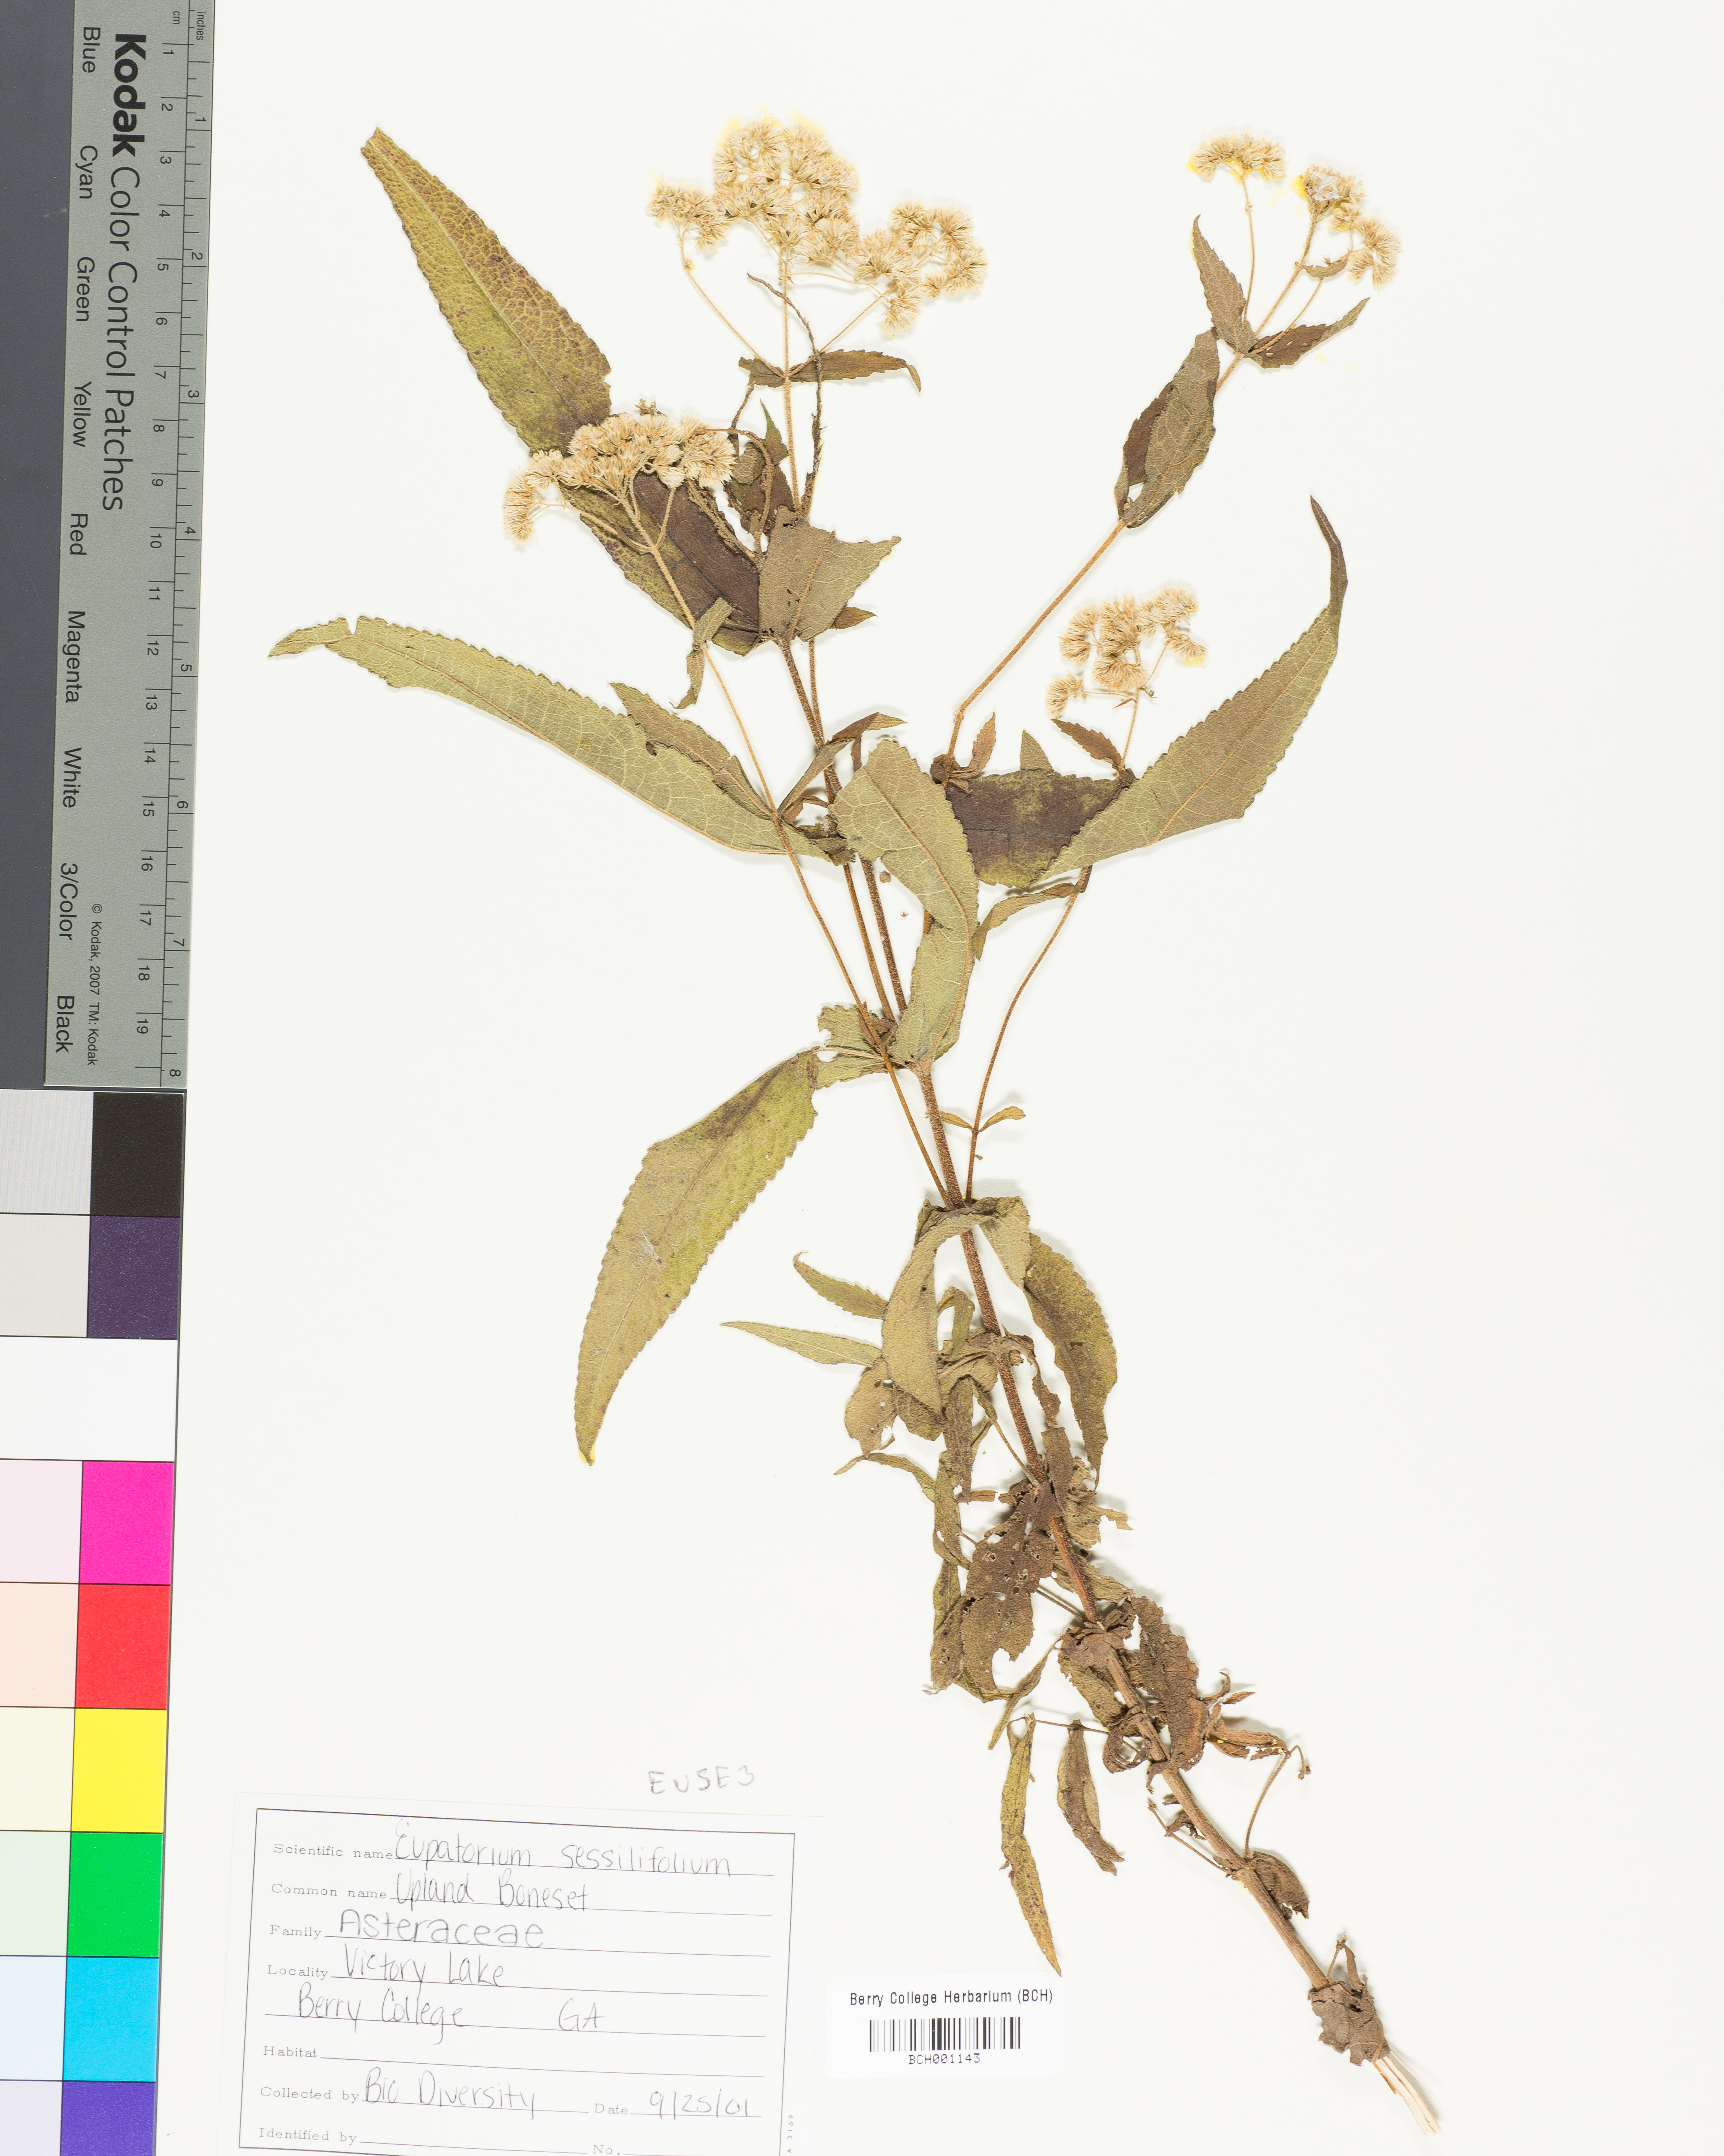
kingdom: Plantae
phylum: Tracheophyta
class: Magnoliopsida
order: Asterales
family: Asteraceae
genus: Eupatorium
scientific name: Eupatorium sessilifolium
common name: Upland boneset
